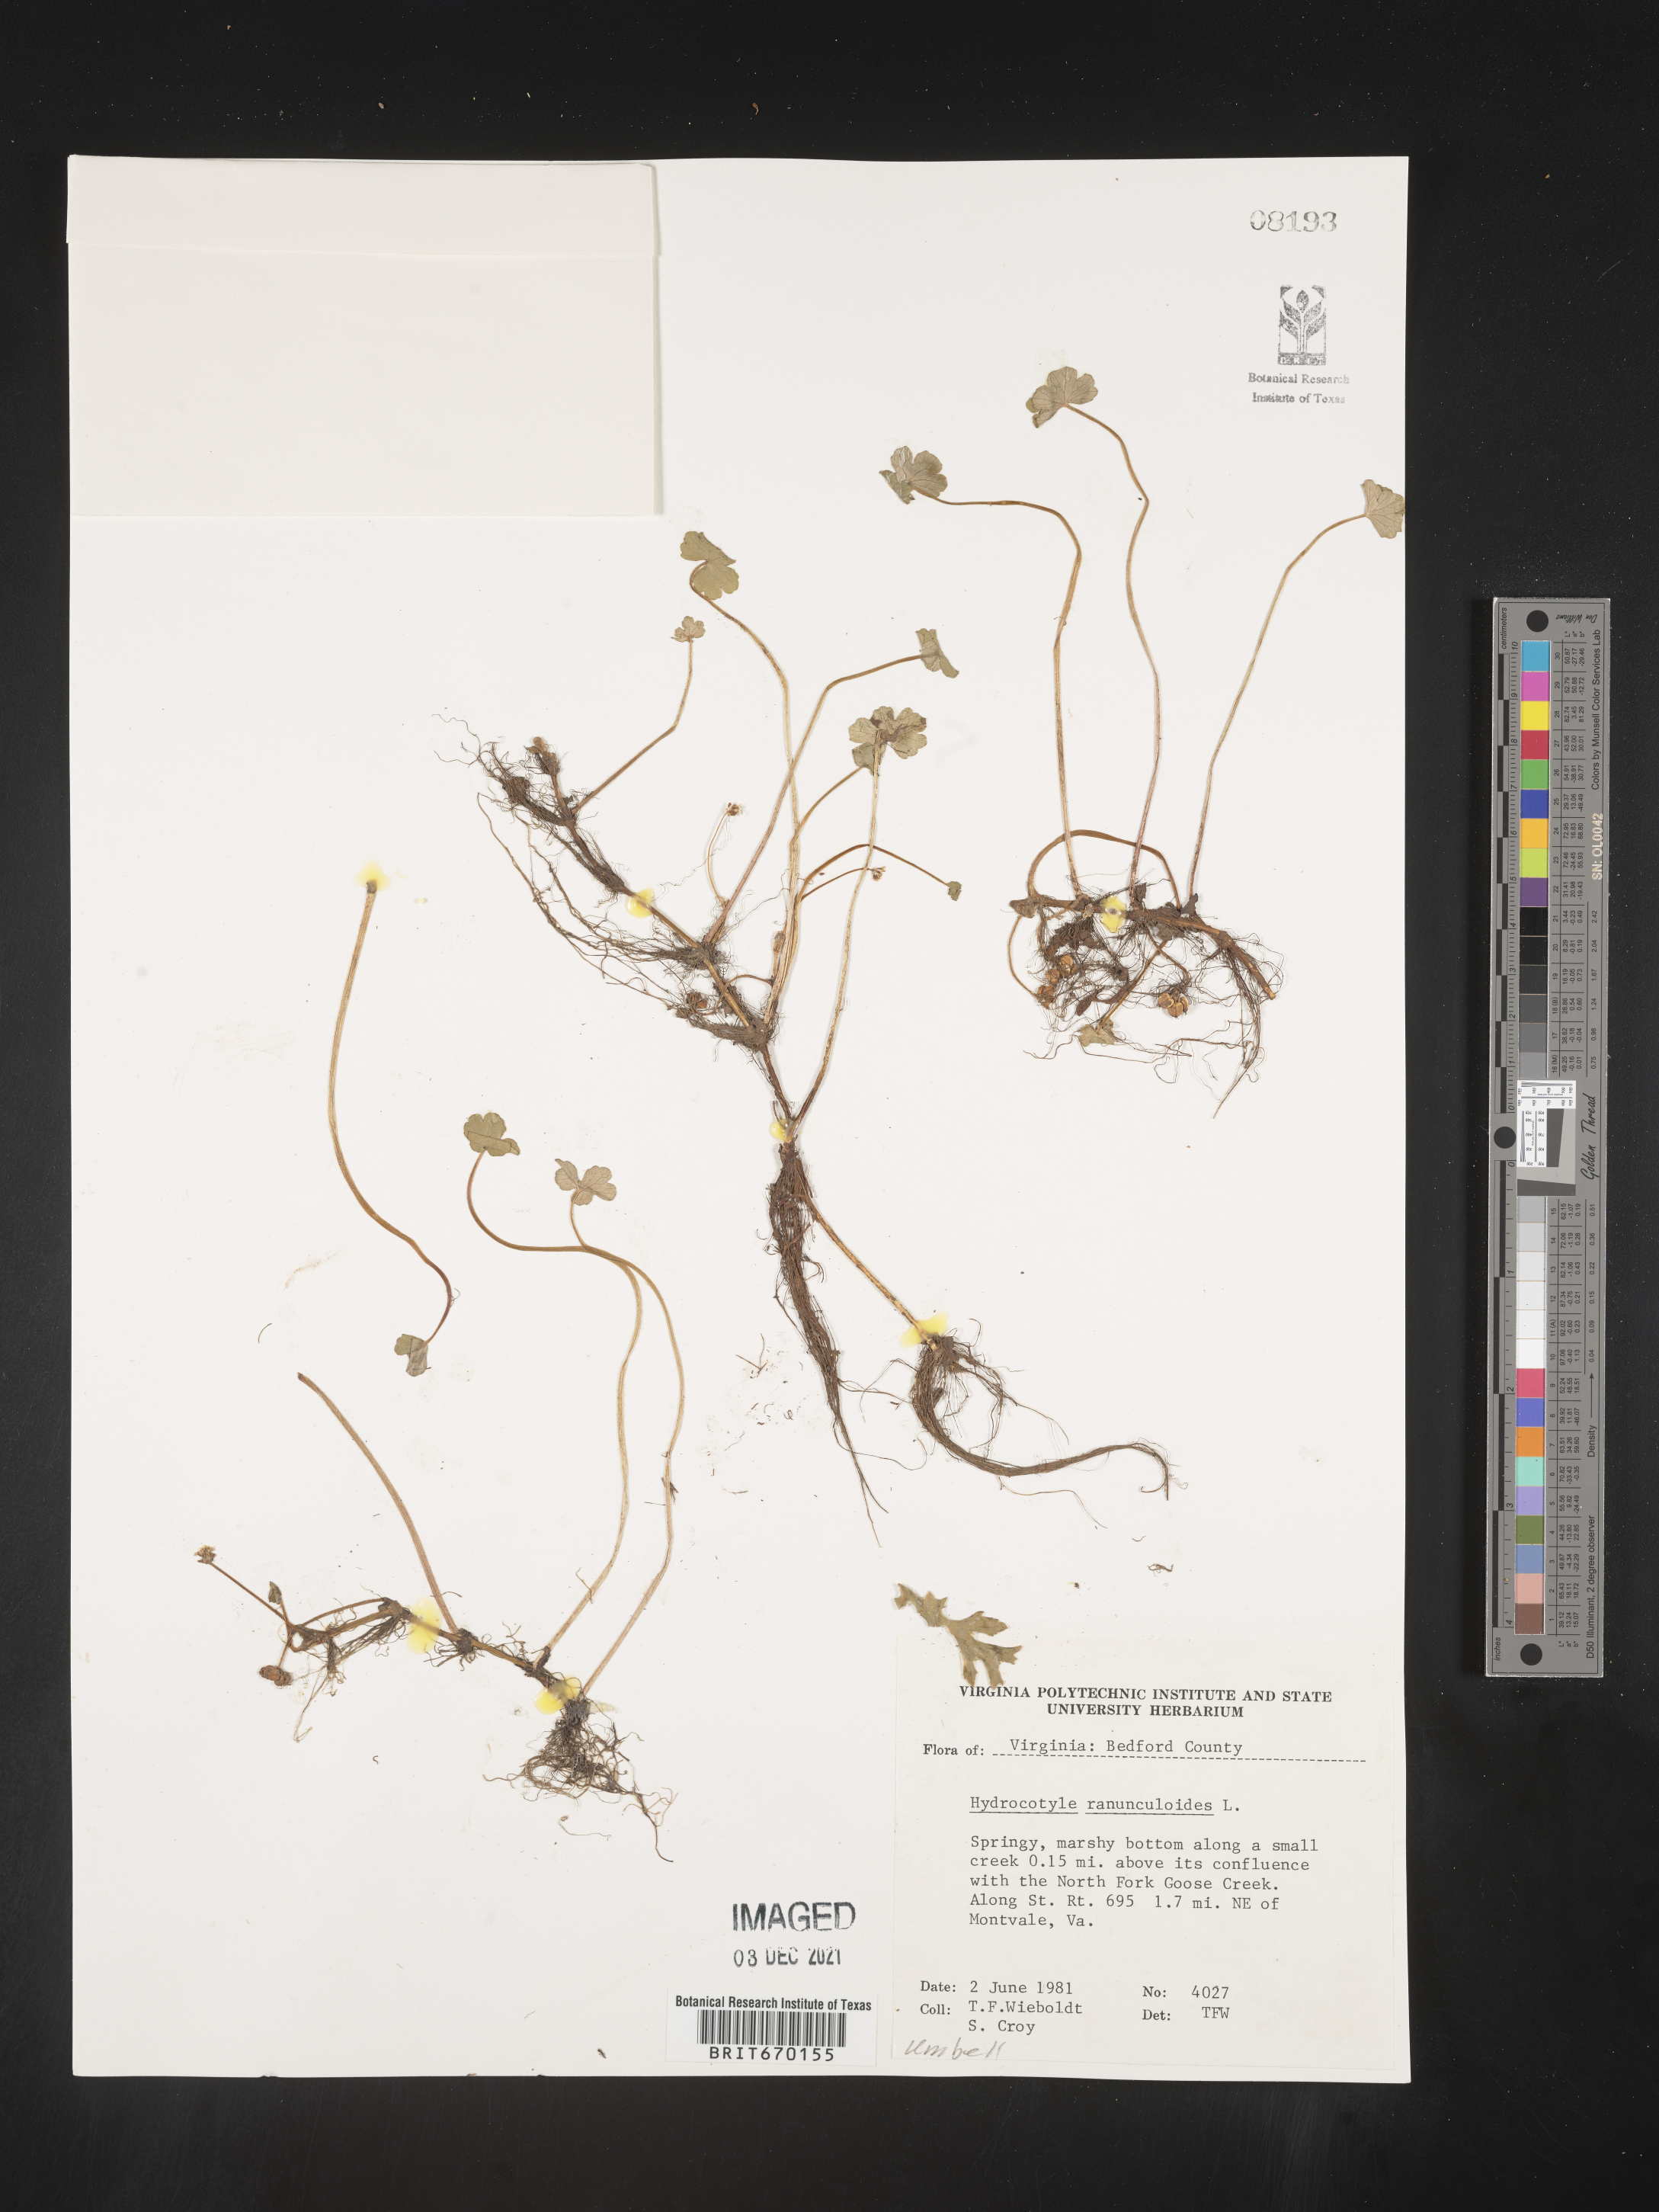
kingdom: Plantae
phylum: Tracheophyta
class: Magnoliopsida
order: Apiales
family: Araliaceae
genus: Hydrocotyle
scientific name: Hydrocotyle ranunculoides
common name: Floating pennywort
